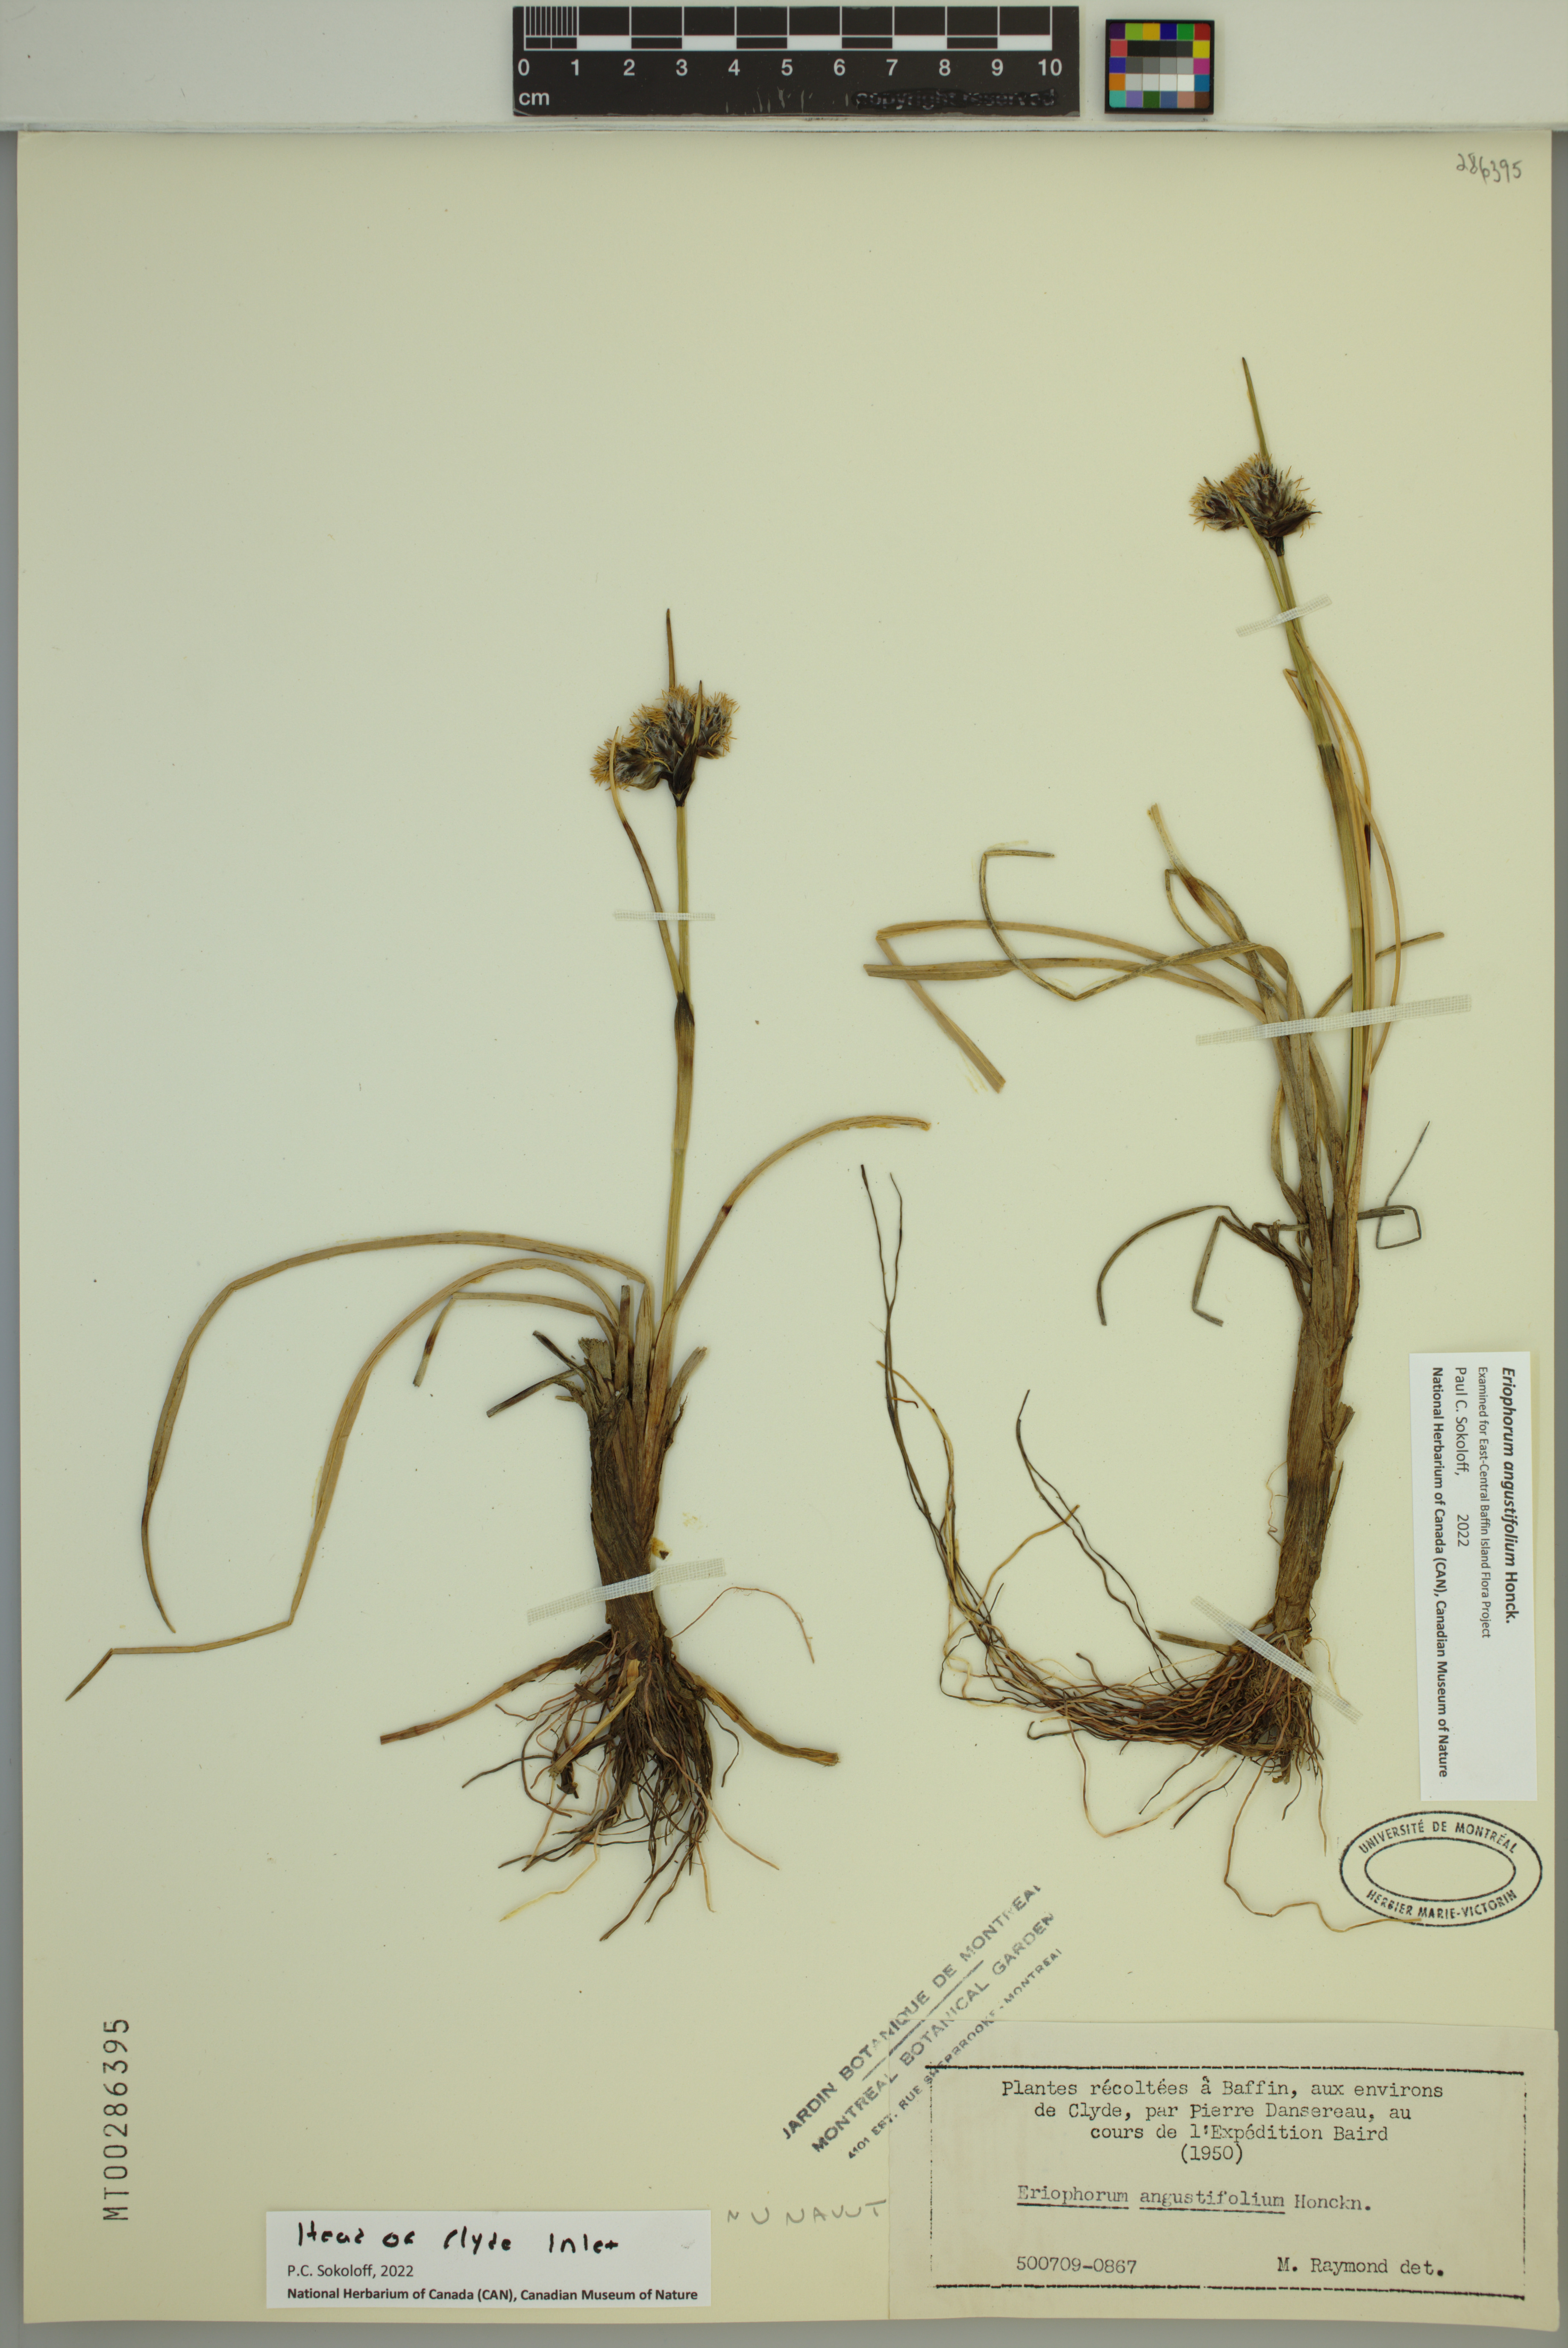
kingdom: Plantae
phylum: Tracheophyta
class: Liliopsida
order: Poales
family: Cyperaceae
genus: Eriophorum
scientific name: Eriophorum angustifolium
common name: Common cottongrass
